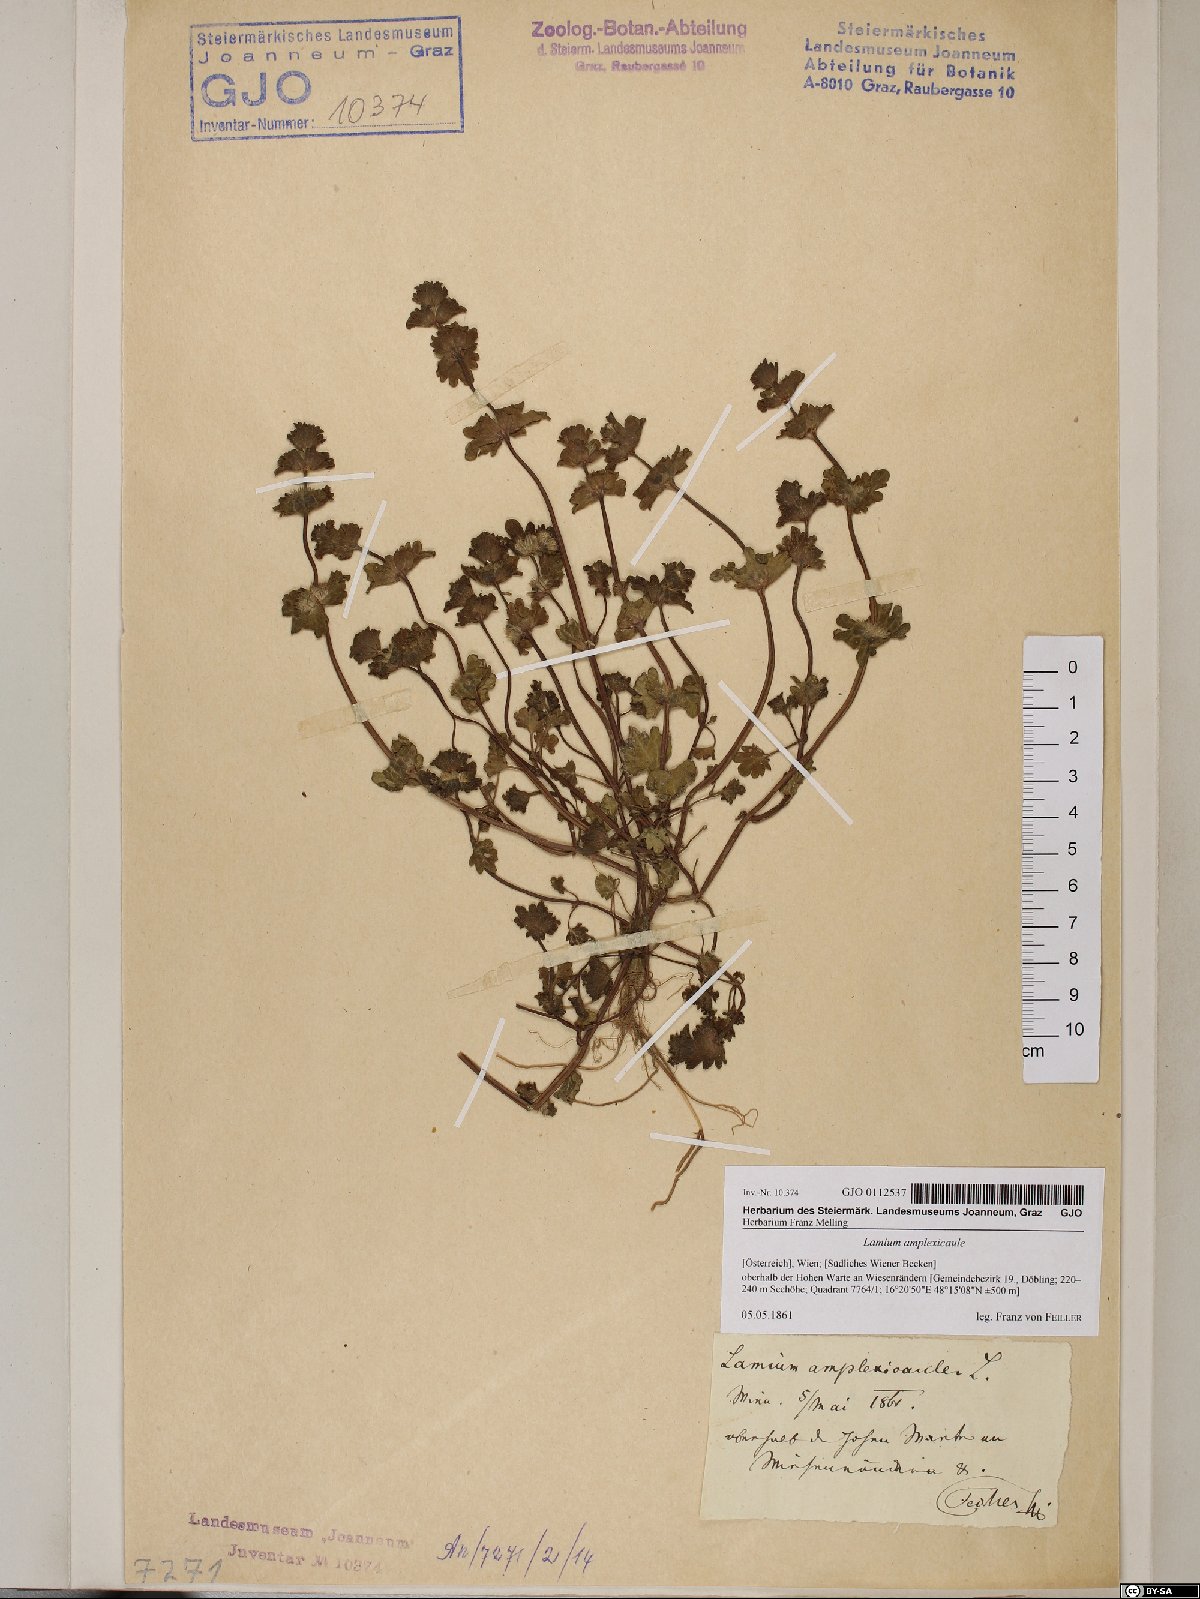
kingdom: Plantae
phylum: Tracheophyta
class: Magnoliopsida
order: Lamiales
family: Lamiaceae
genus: Lamium
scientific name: Lamium amplexicaule
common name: Henbit dead-nettle
